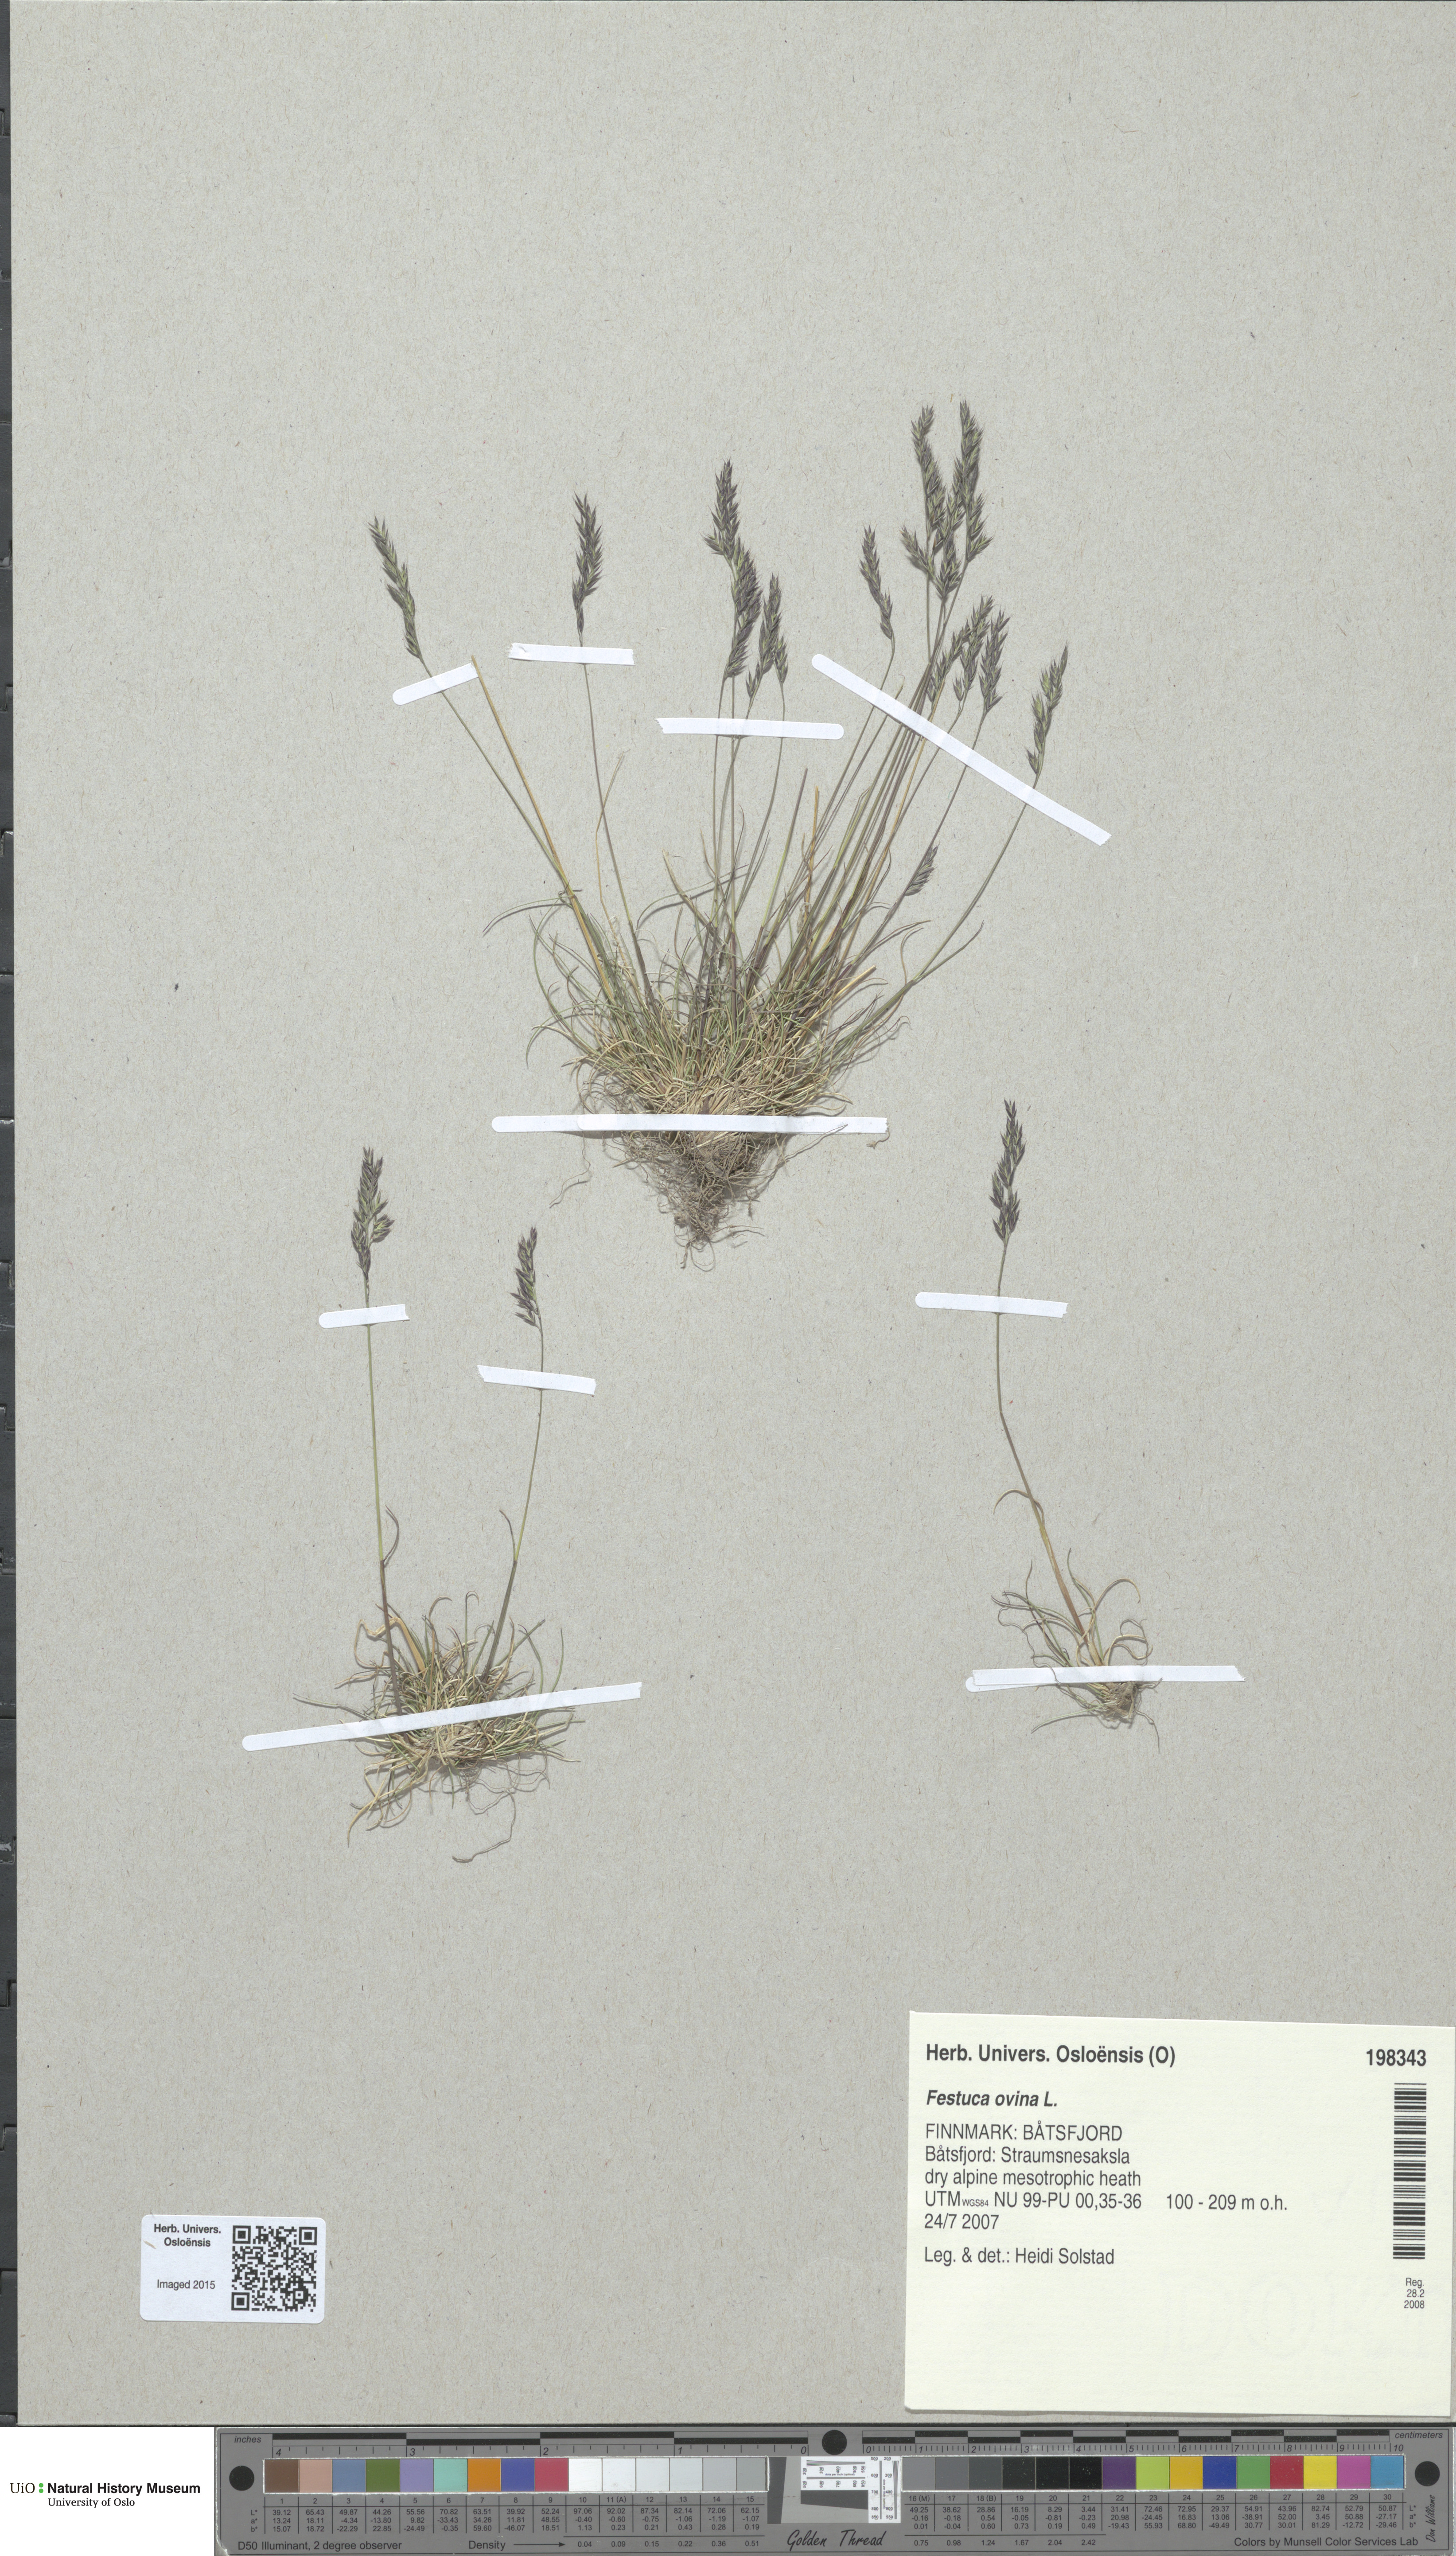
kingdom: Plantae
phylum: Tracheophyta
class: Liliopsida
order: Poales
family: Poaceae
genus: Festuca
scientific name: Festuca ovina
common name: Sheep fescue
